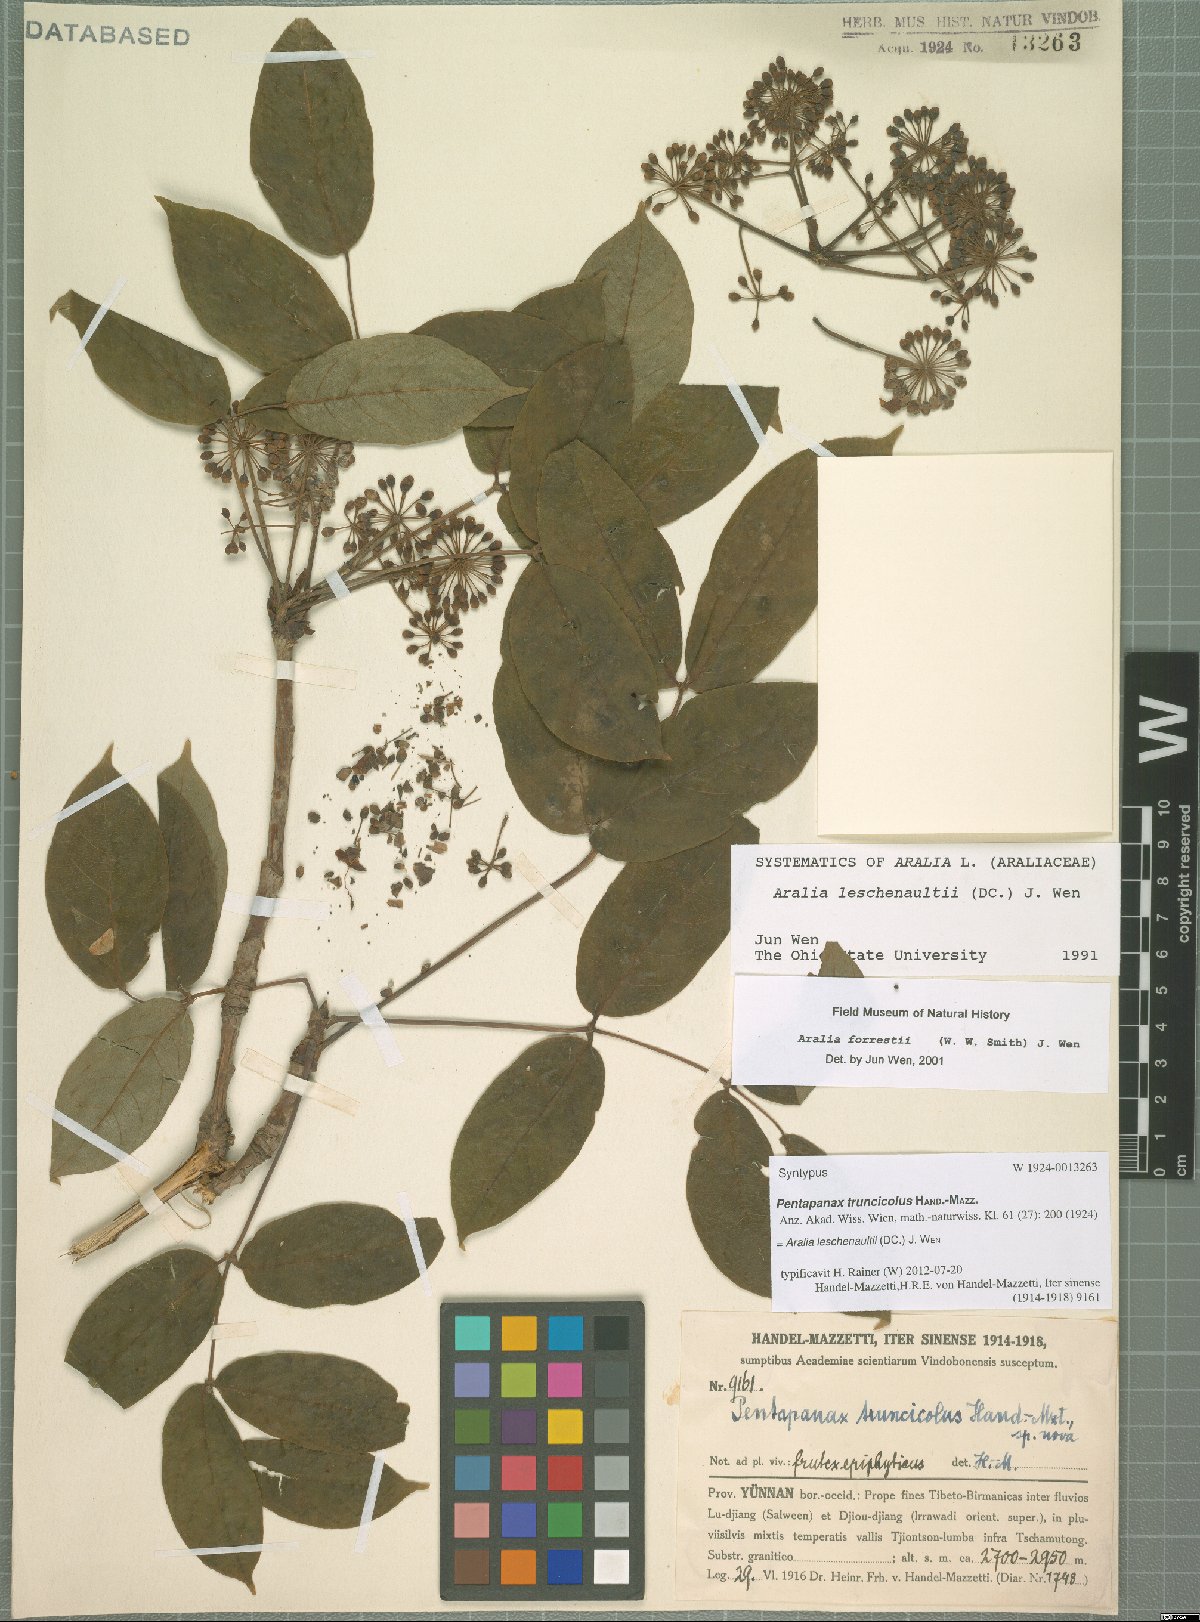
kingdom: Plantae
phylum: Tracheophyta
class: Magnoliopsida
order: Apiales
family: Araliaceae
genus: Aralia
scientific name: Aralia leschenaultii
